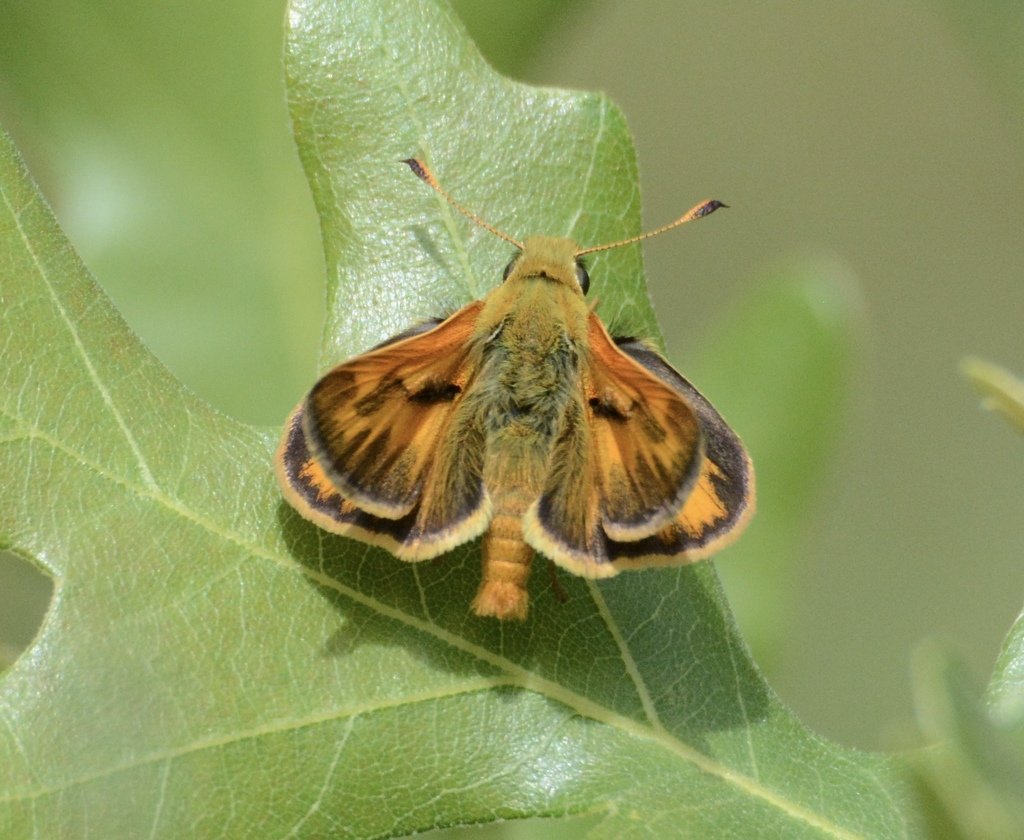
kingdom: Animalia
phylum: Arthropoda
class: Insecta
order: Lepidoptera
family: Hesperiidae
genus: Ochlodes
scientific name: Ochlodes sylvanoides
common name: Woodland Skipper
